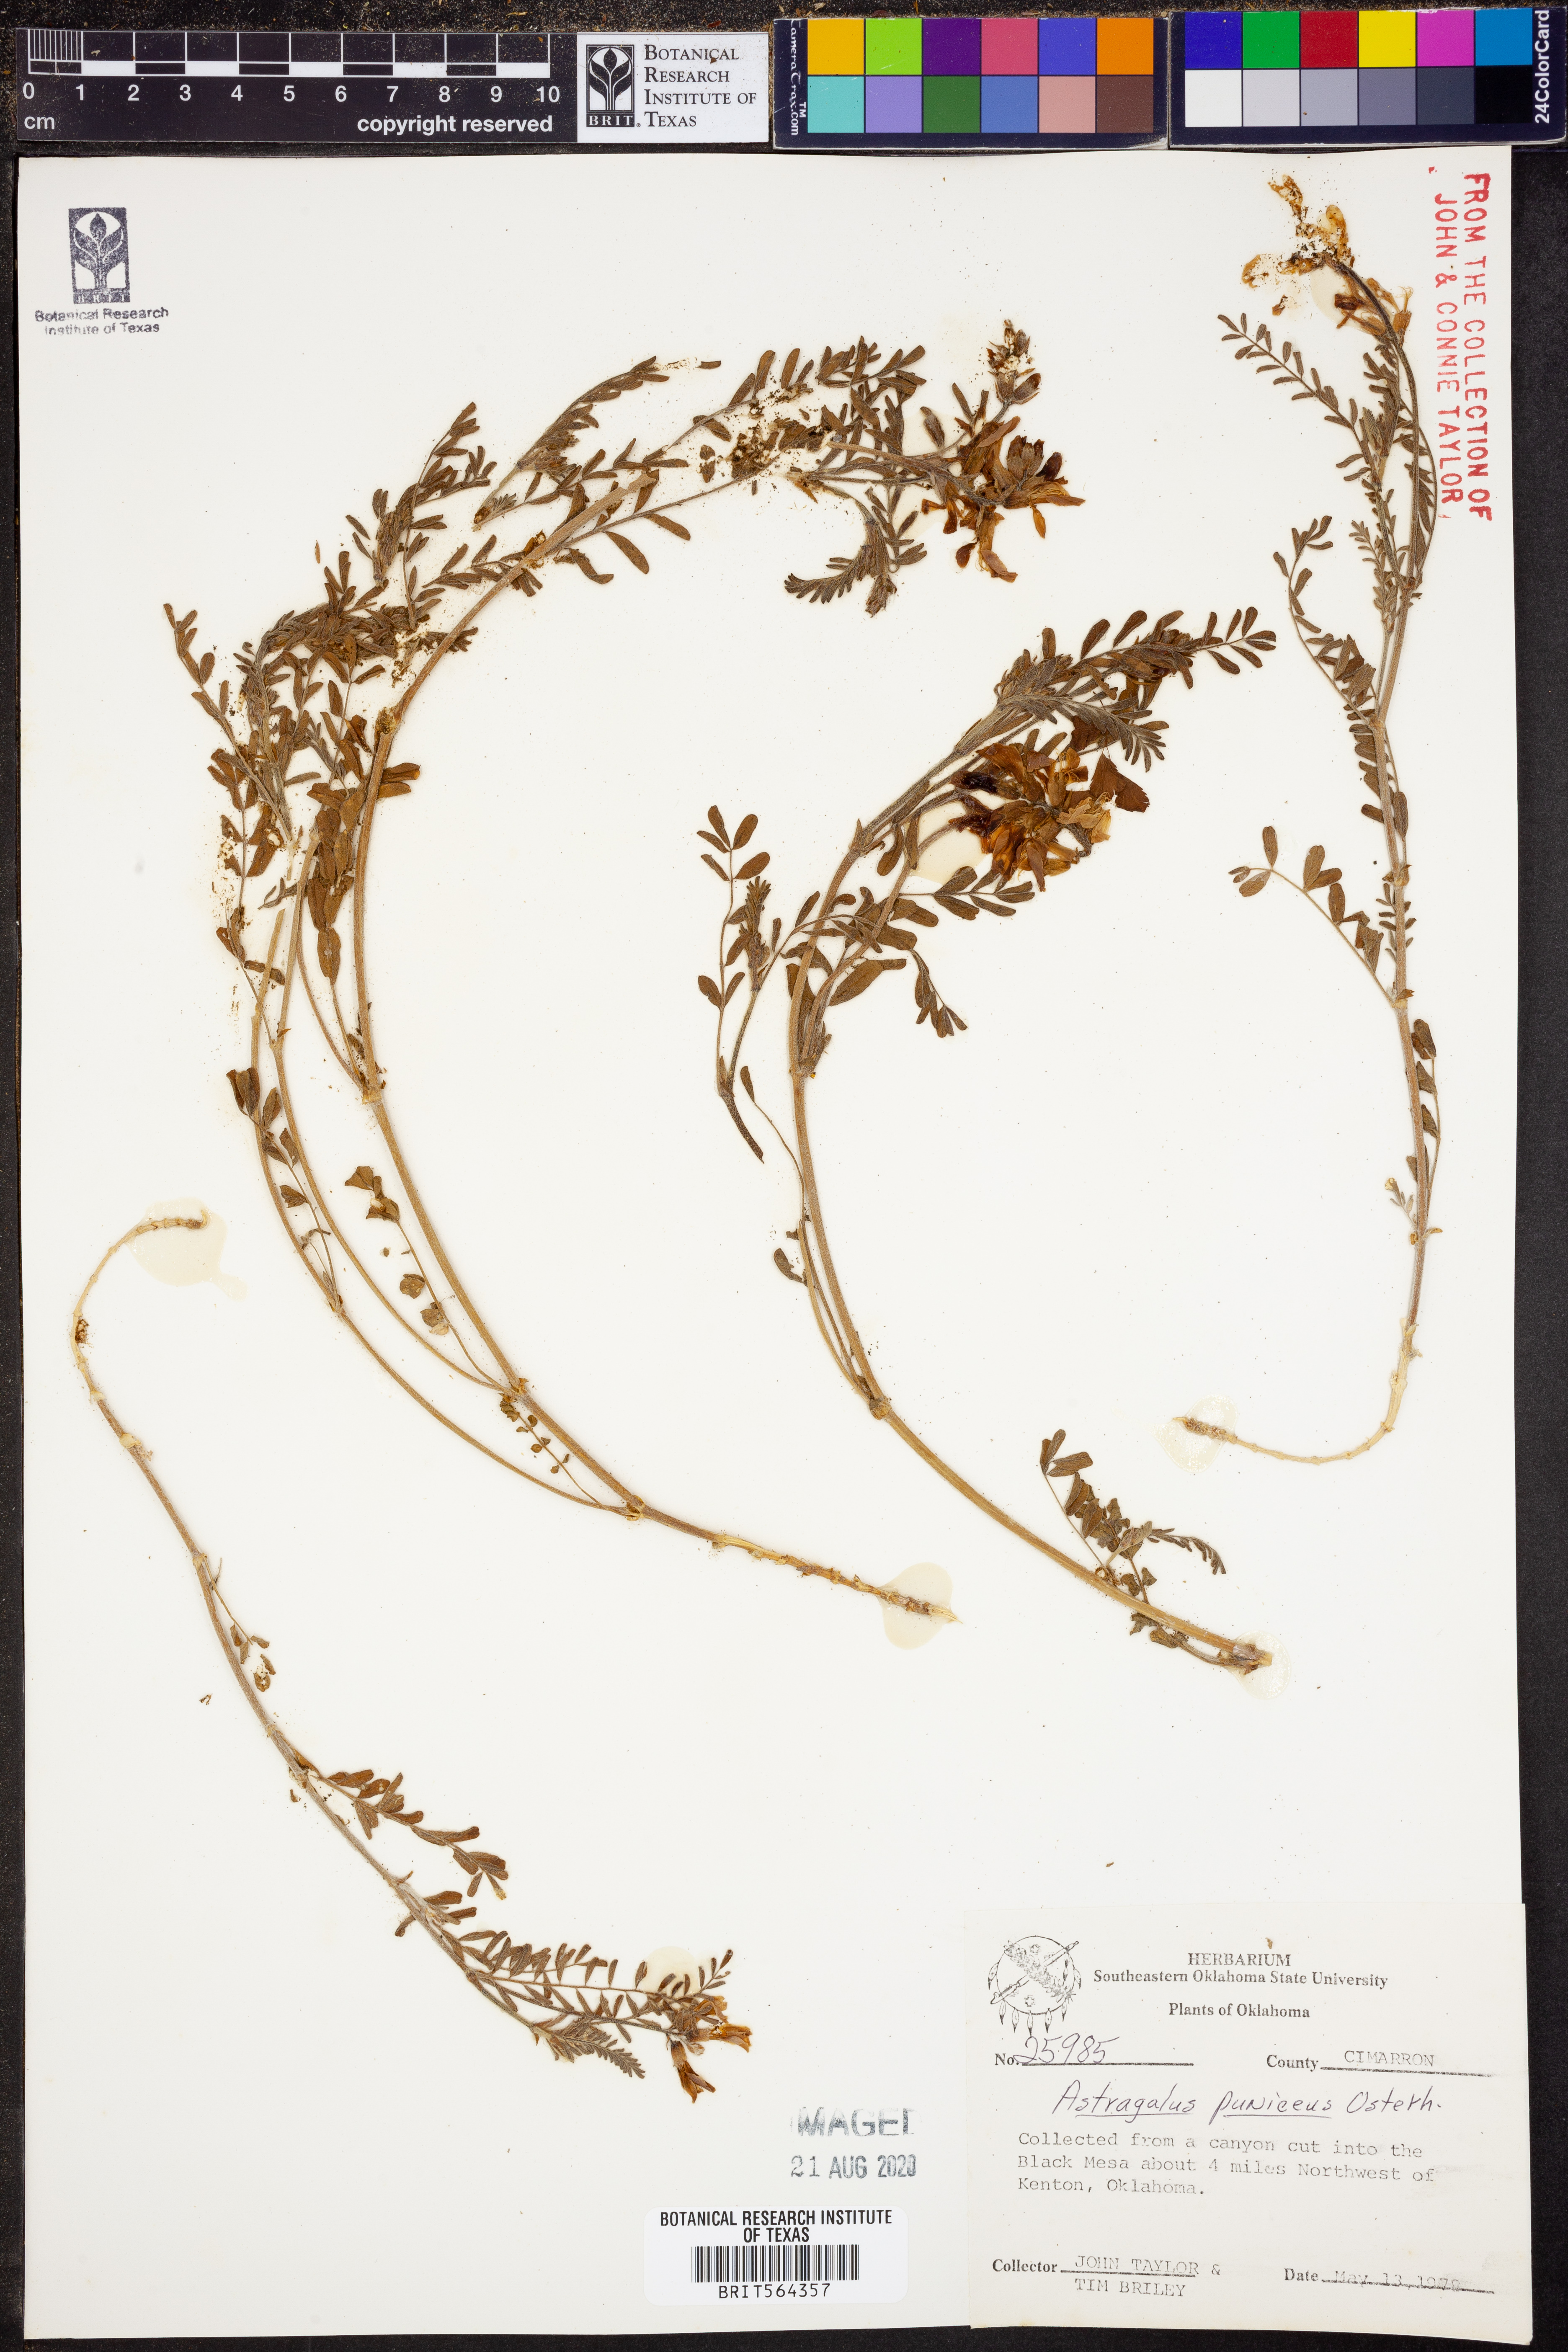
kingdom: Plantae
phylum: Tracheophyta
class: Magnoliopsida
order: Fabales
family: Fabaceae
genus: Astragalus
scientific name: Astragalus puniceus
